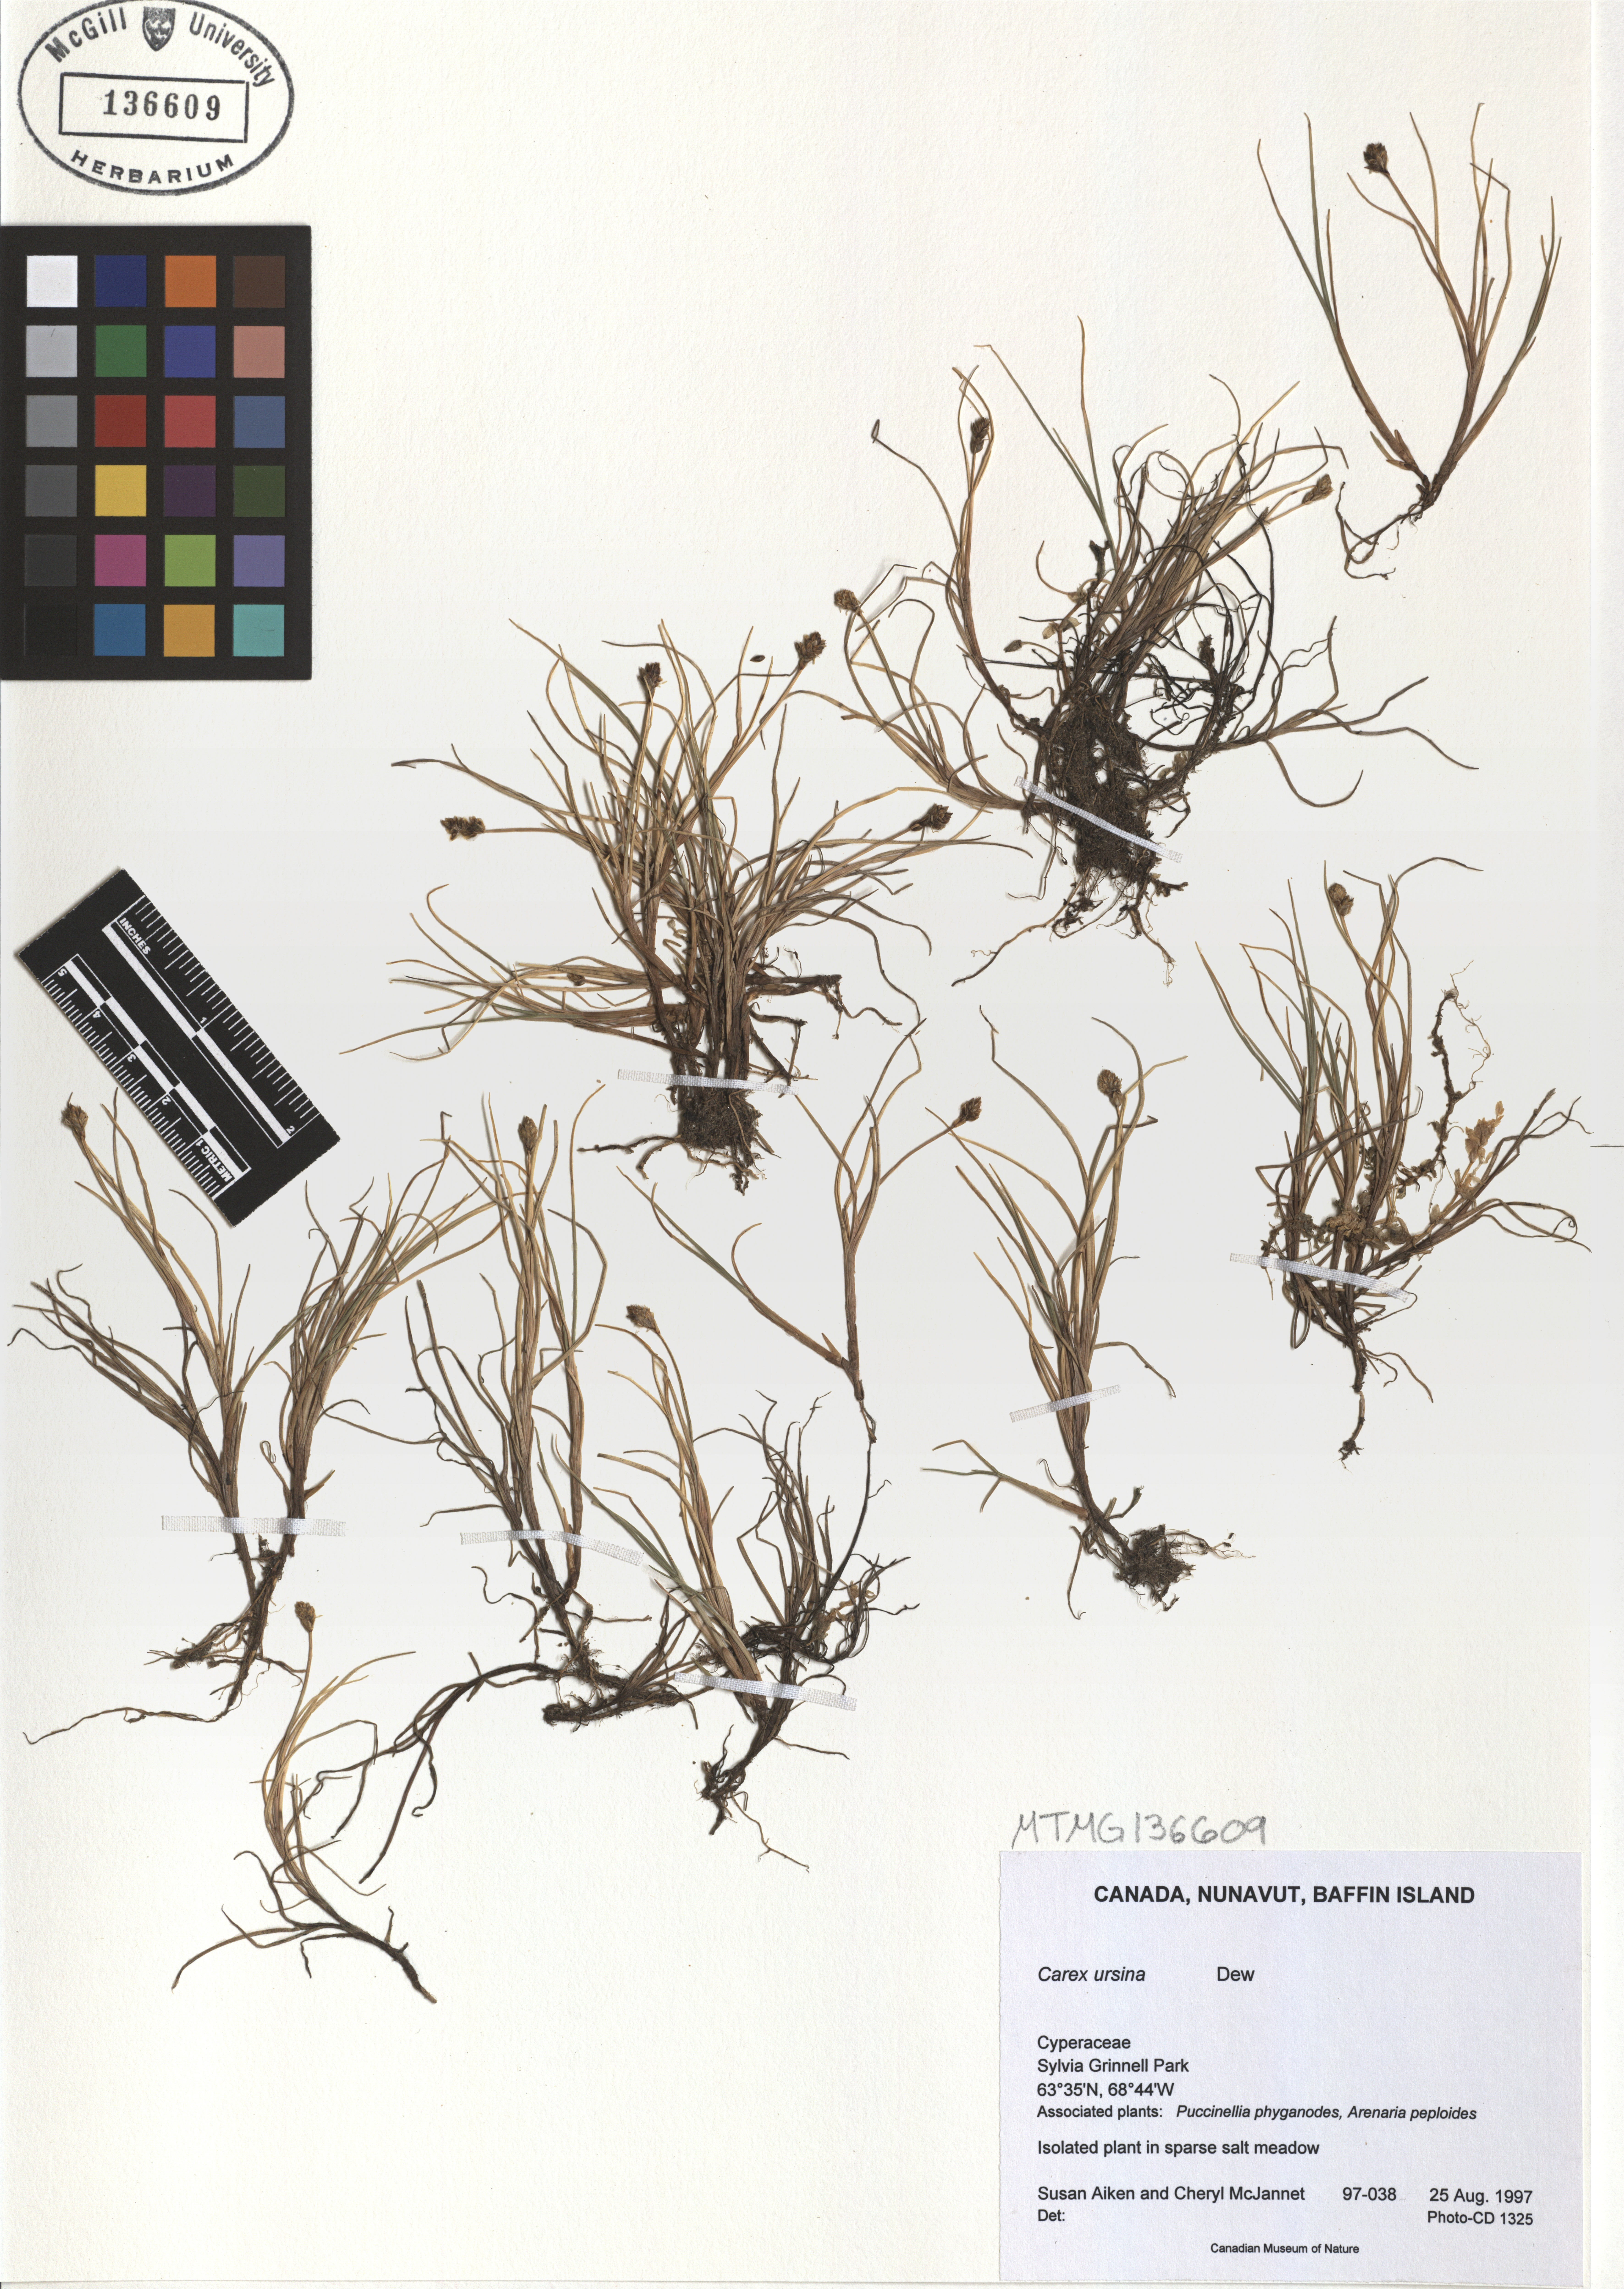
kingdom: Plantae
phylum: Tracheophyta
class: Liliopsida
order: Poales
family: Cyperaceae
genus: Carex
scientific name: Carex ursina
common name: Bear sedge
